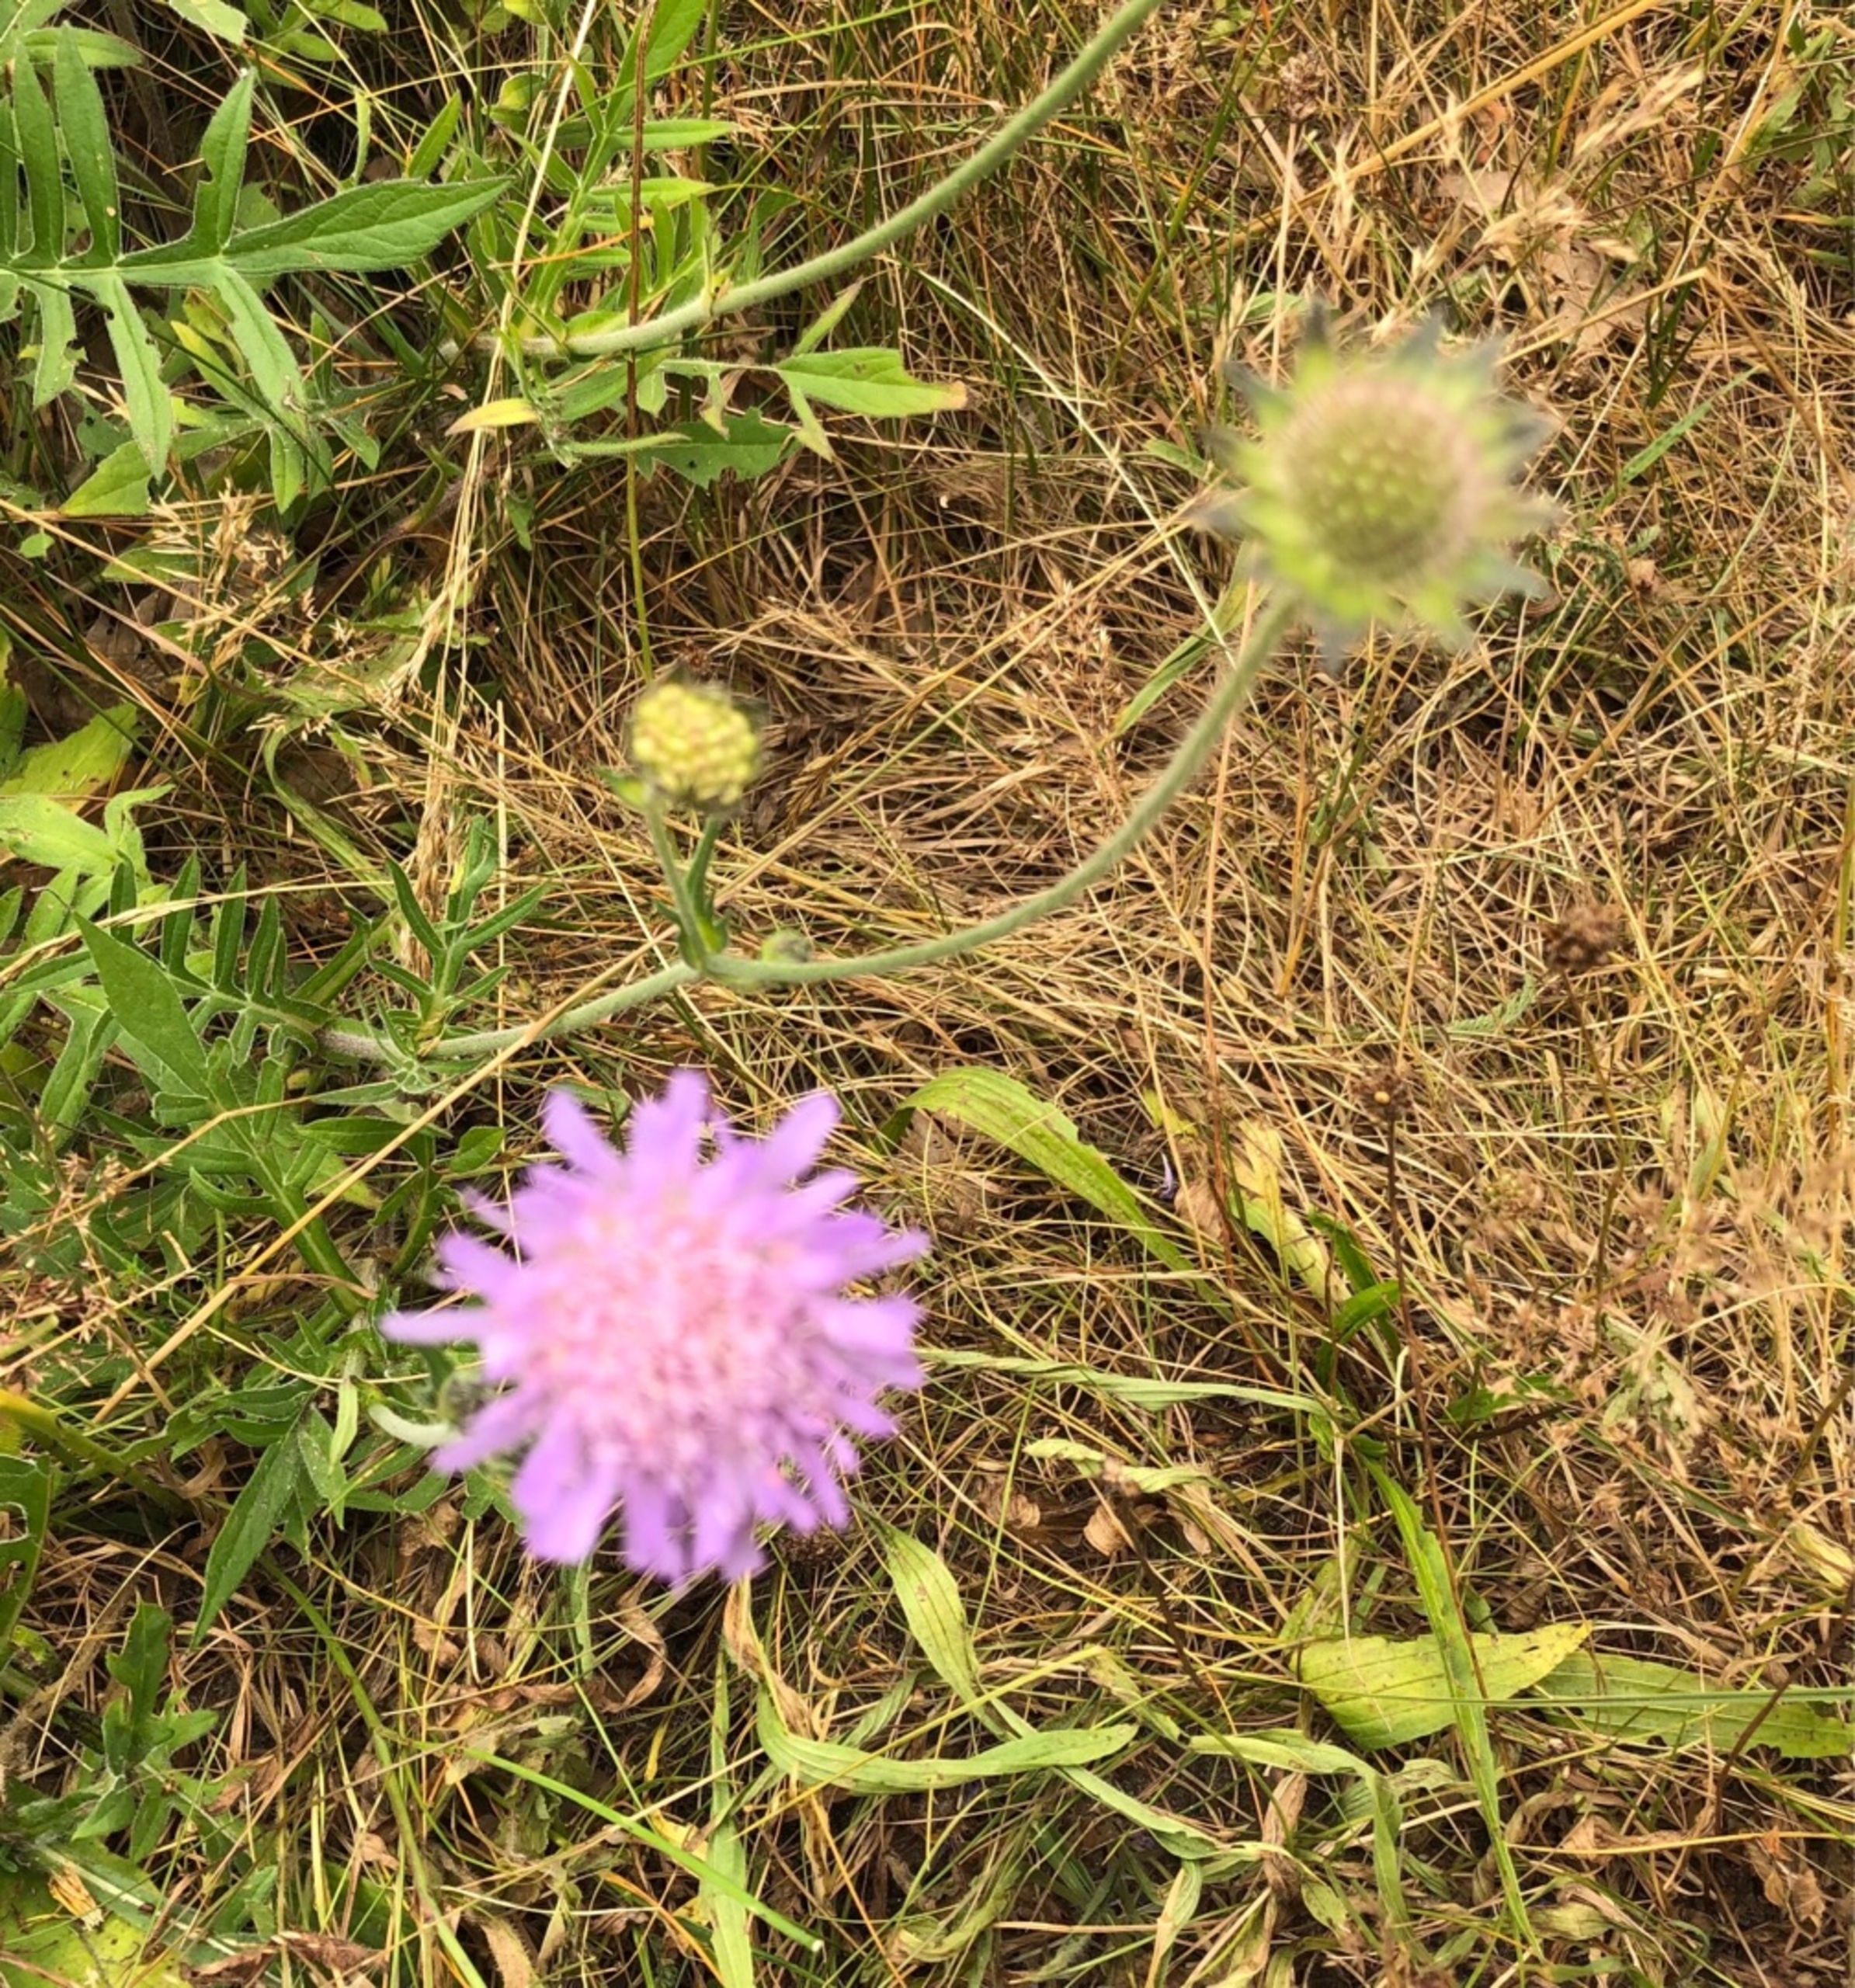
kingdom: Plantae
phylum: Tracheophyta
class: Magnoliopsida
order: Dipsacales
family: Caprifoliaceae
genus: Knautia
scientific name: Knautia arvensis
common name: Blåhat
